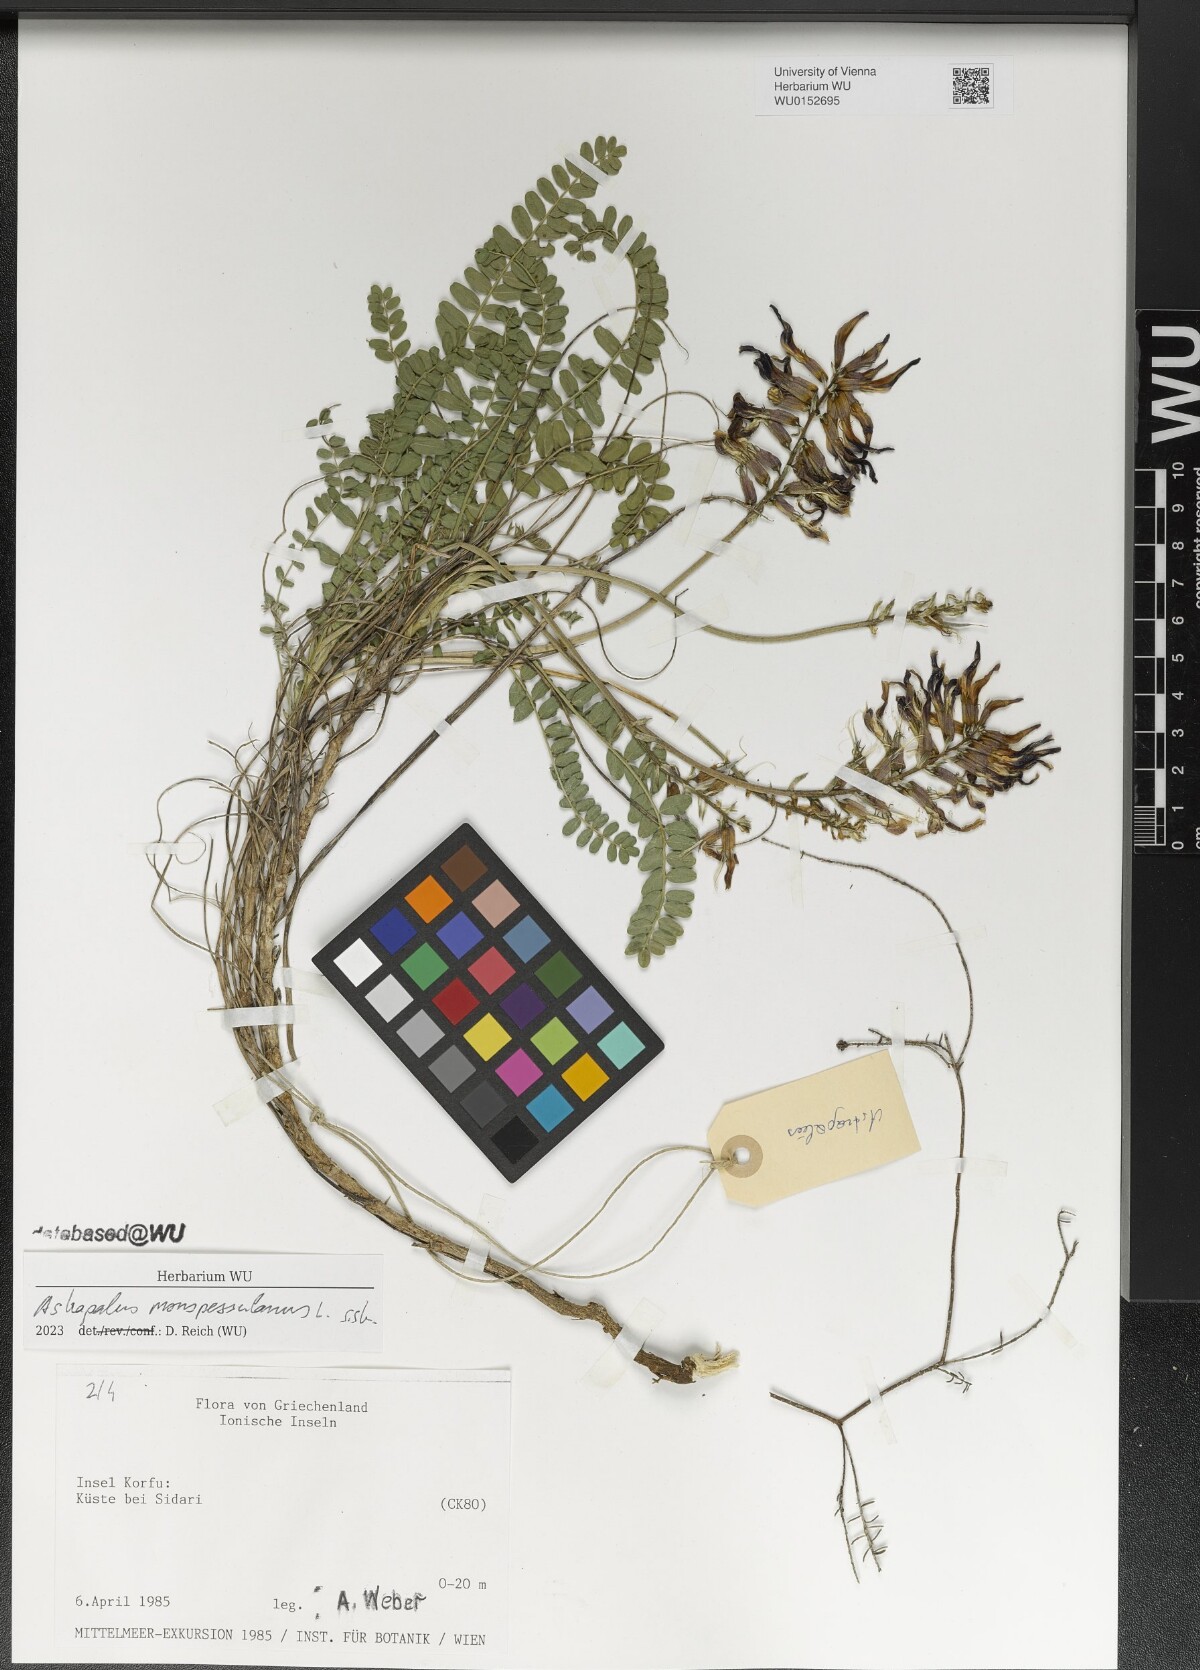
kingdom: Plantae
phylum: Tracheophyta
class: Magnoliopsida
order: Fabales
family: Fabaceae
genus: Astragalus
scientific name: Astragalus monspessulanus
